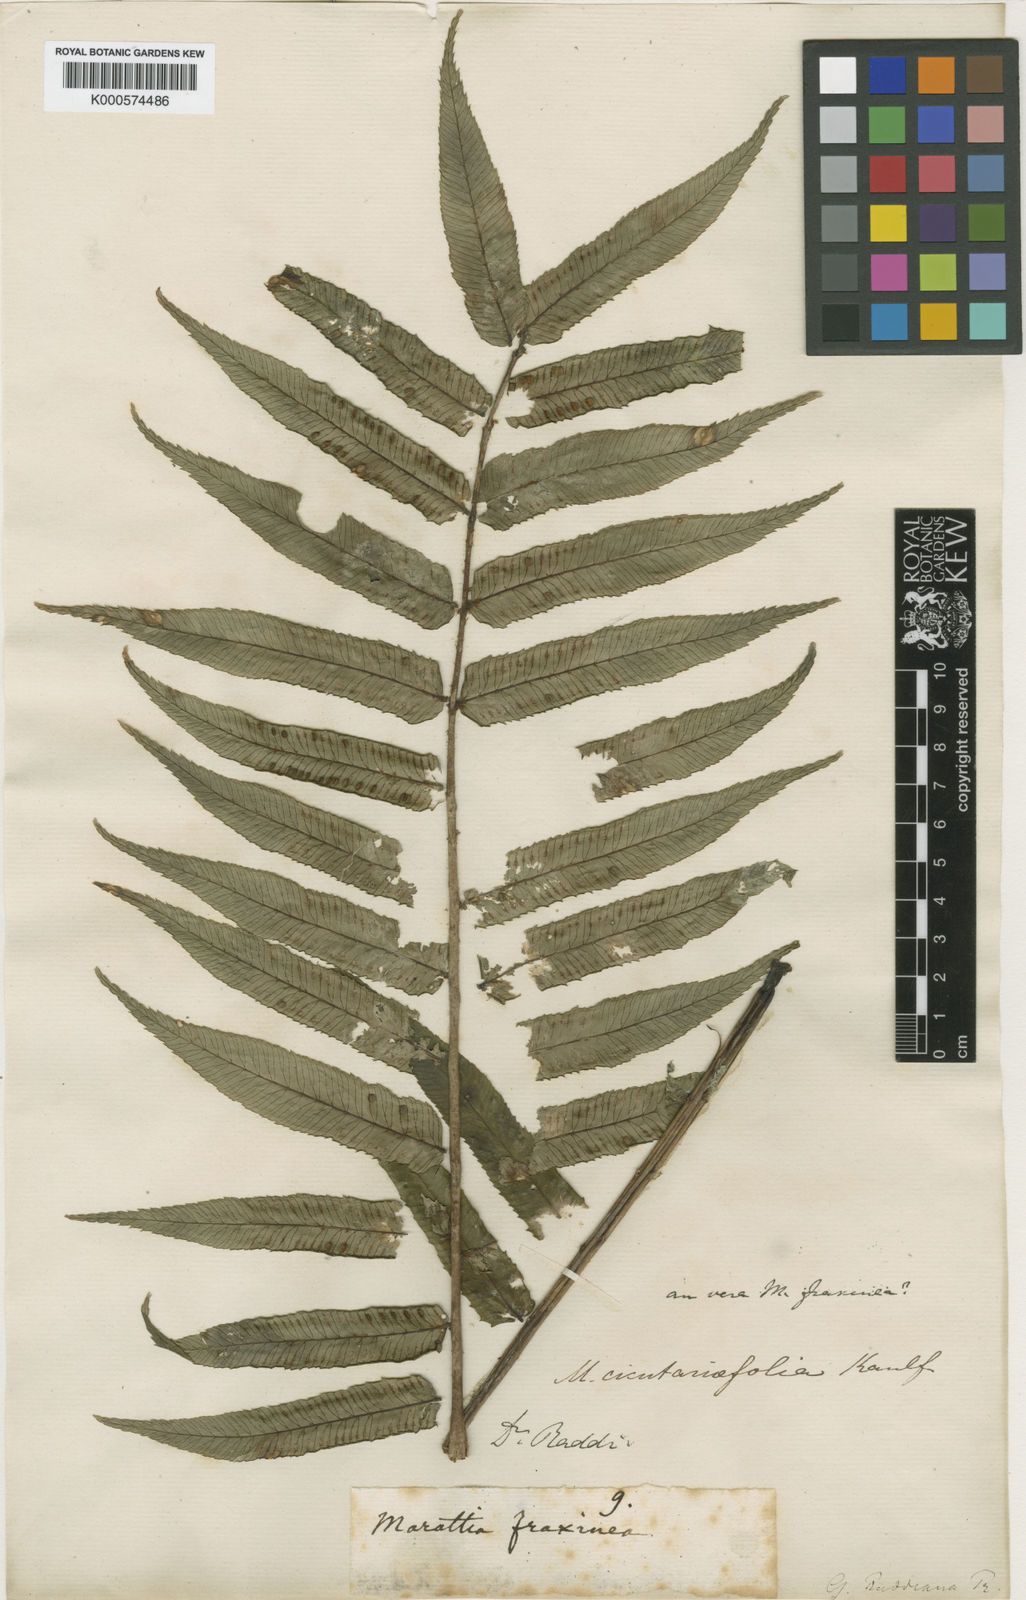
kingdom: Plantae
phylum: Tracheophyta
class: Polypodiopsida
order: Marattiales
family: Marattiaceae
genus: Eupodium
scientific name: Eupodium cicutifolium
